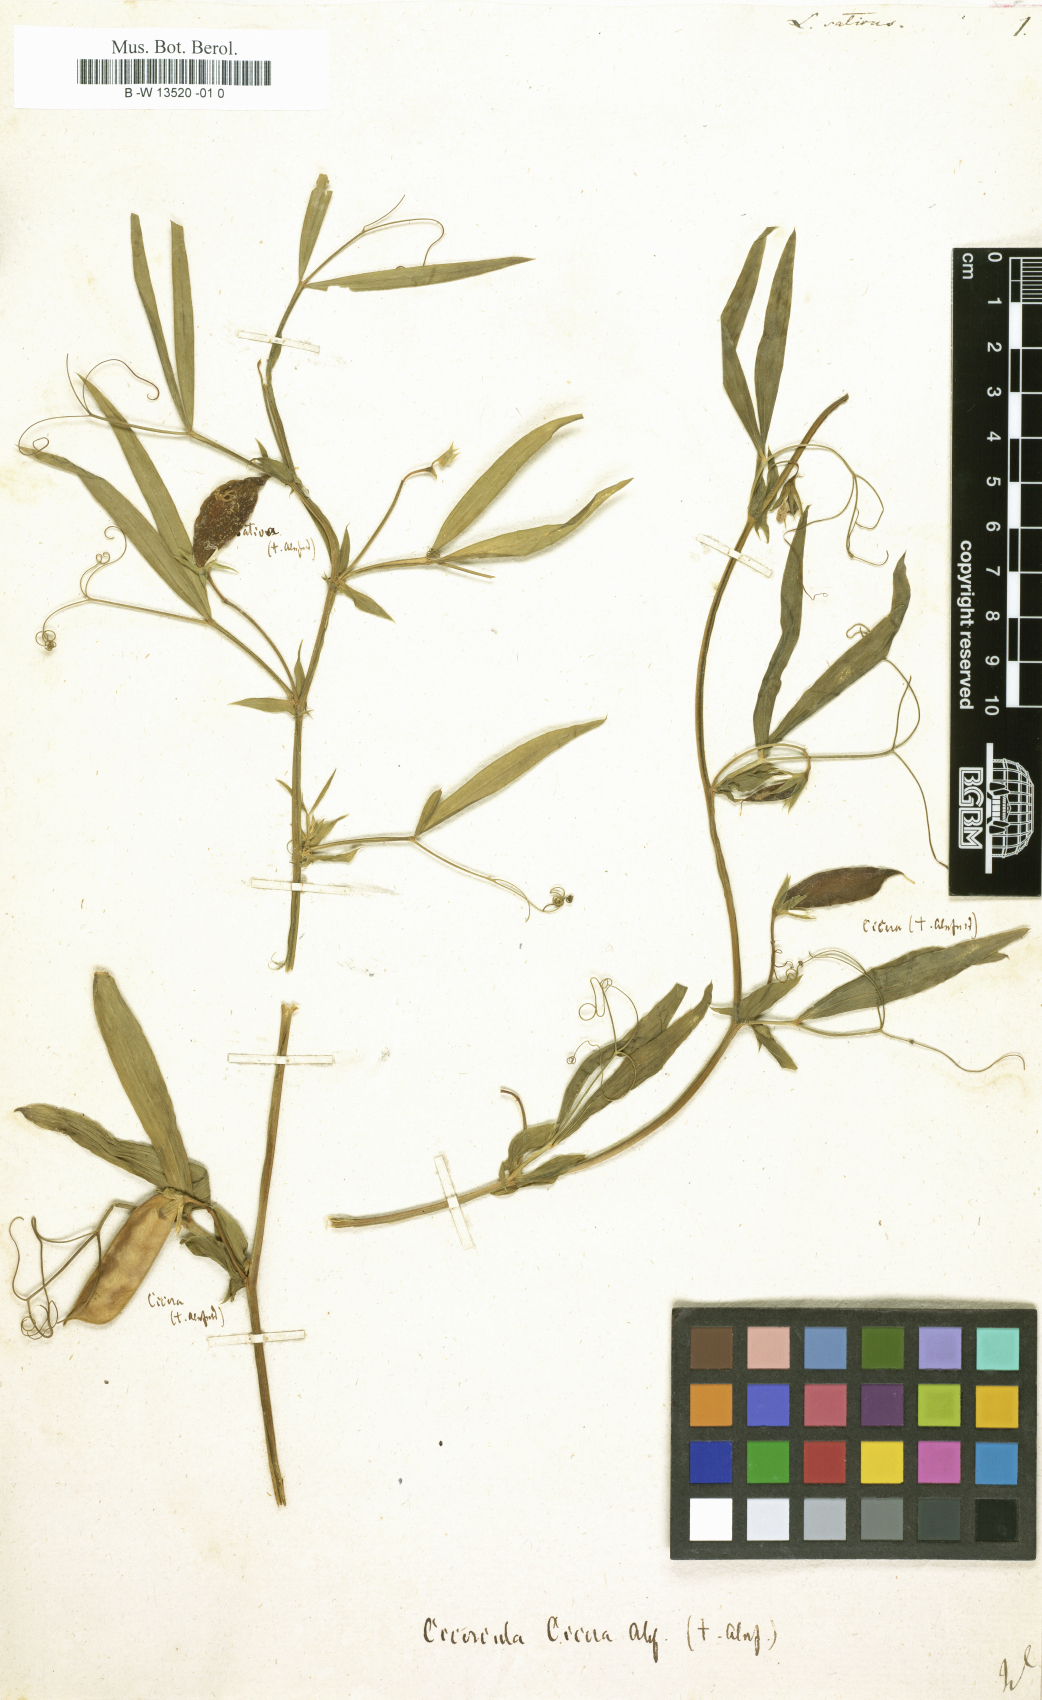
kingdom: Plantae
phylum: Tracheophyta
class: Magnoliopsida
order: Fabales
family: Fabaceae
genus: Lathyrus
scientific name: Lathyrus sativus
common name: Indian pea
